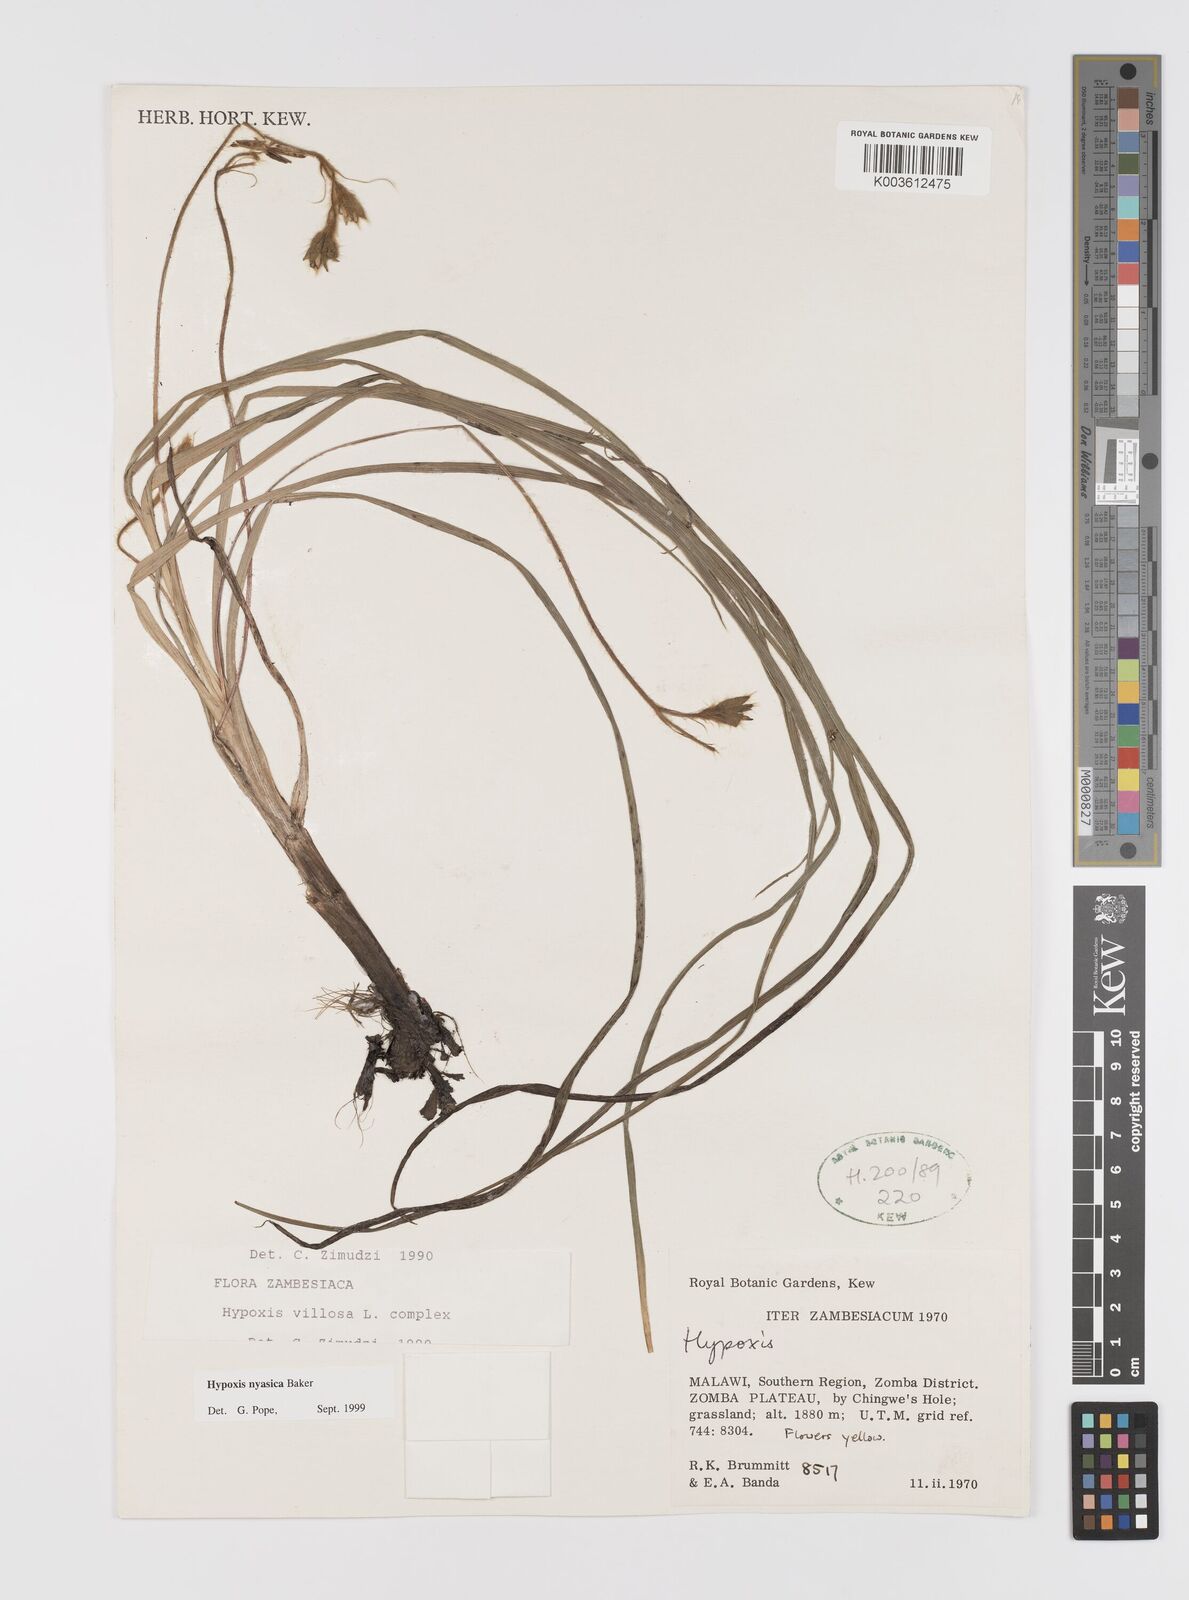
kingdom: Plantae
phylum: Tracheophyta
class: Liliopsida
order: Asparagales
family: Hypoxidaceae
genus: Hypoxis
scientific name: Hypoxis nyasica
